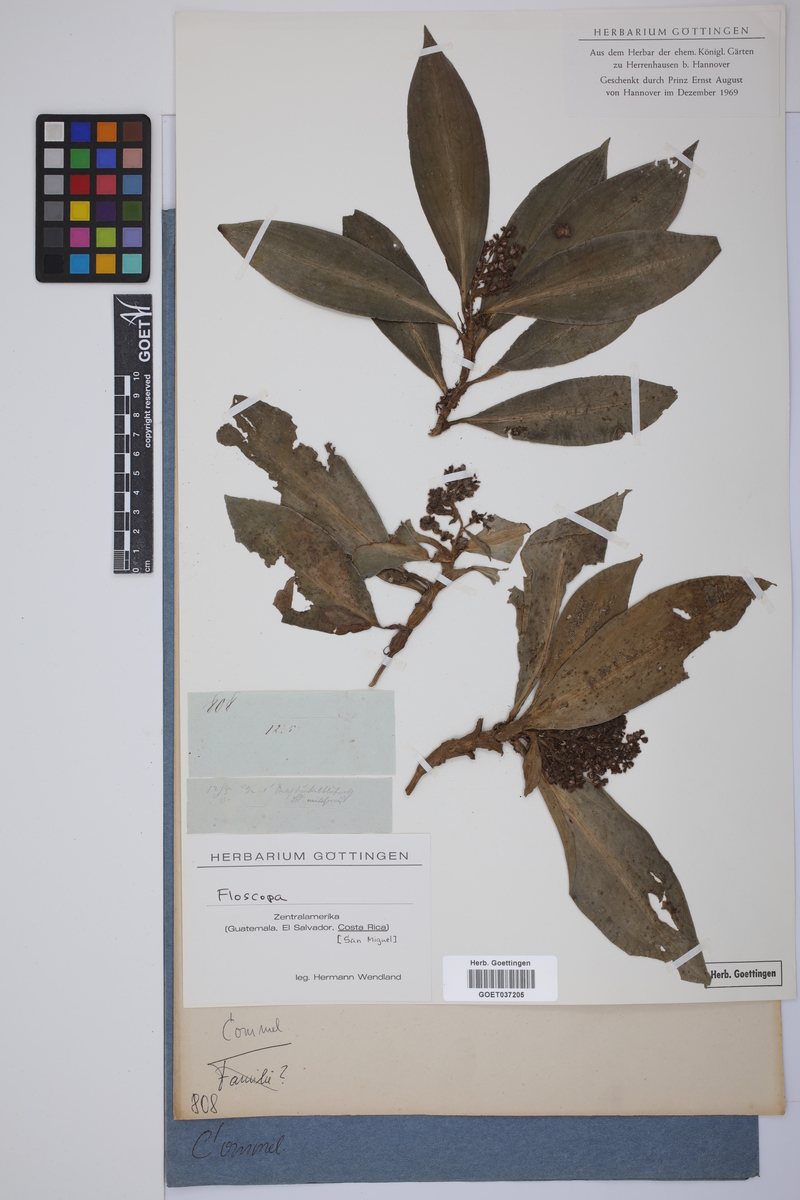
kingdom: Plantae
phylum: Tracheophyta
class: Liliopsida
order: Commelinales
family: Commelinaceae
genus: Floscopa
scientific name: Floscopa
